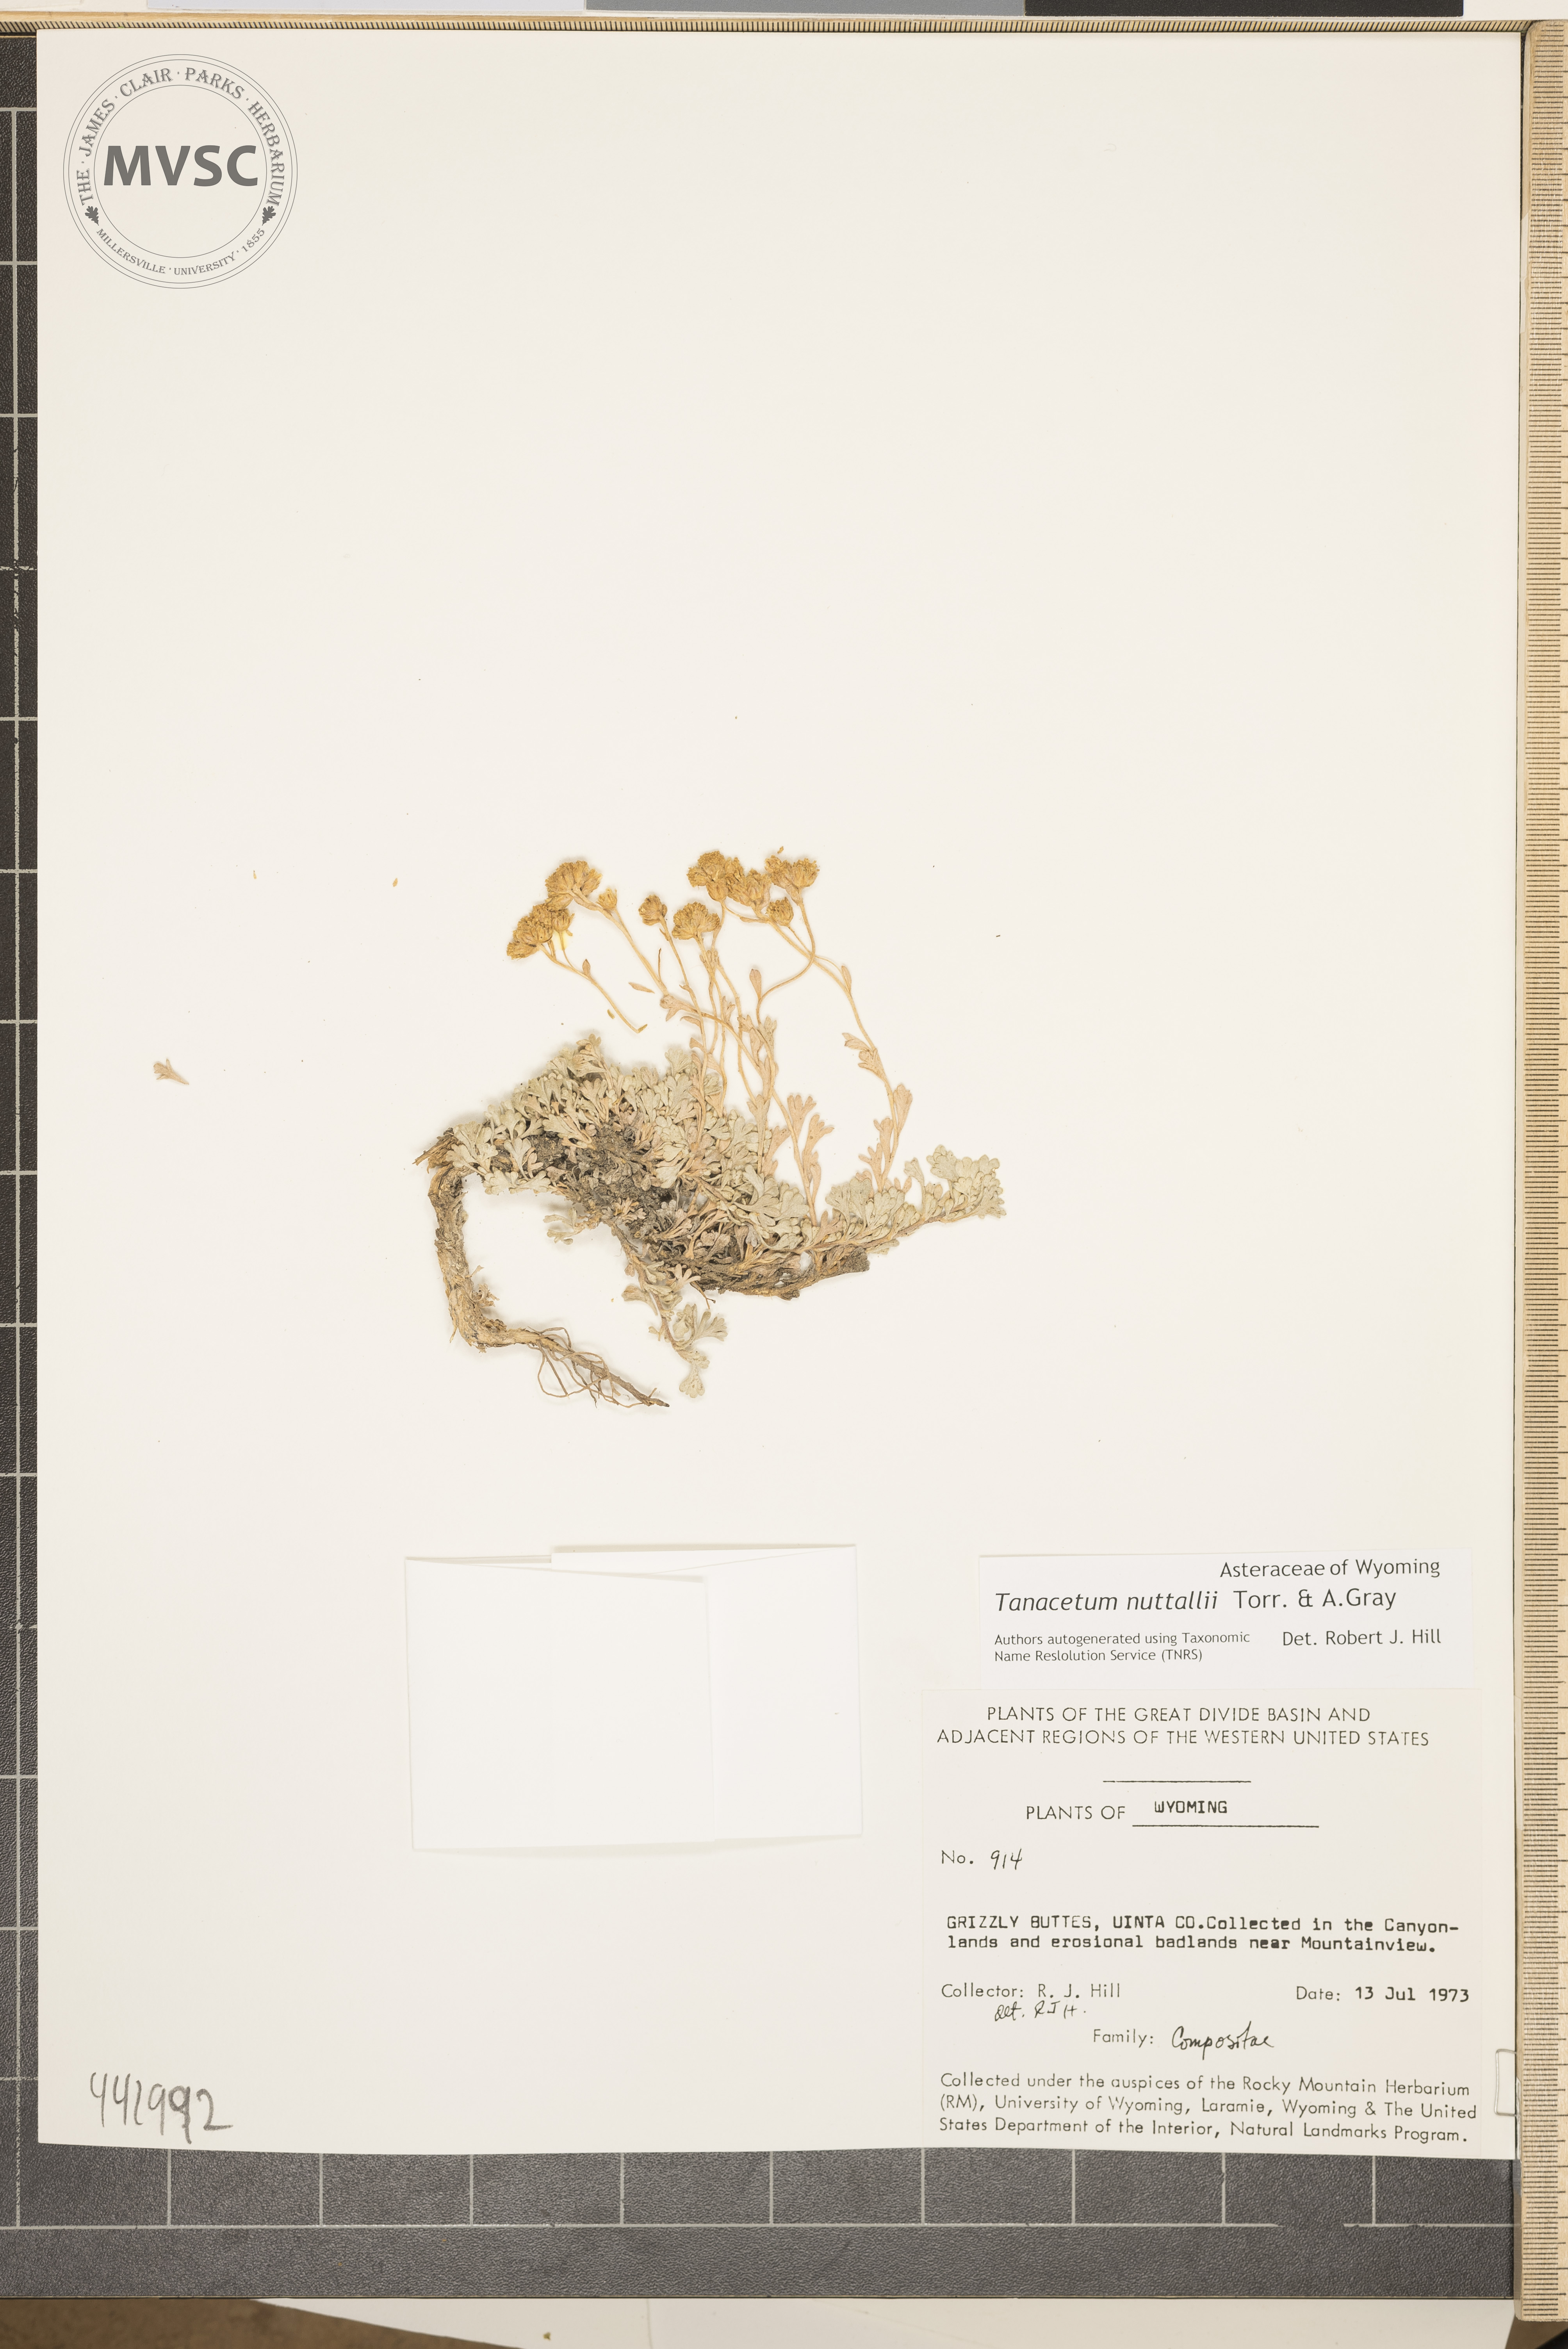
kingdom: Plantae
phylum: Tracheophyta
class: Magnoliopsida
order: Asterales
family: Asteraceae
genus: Artemisia
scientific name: Artemisia nuttallii
